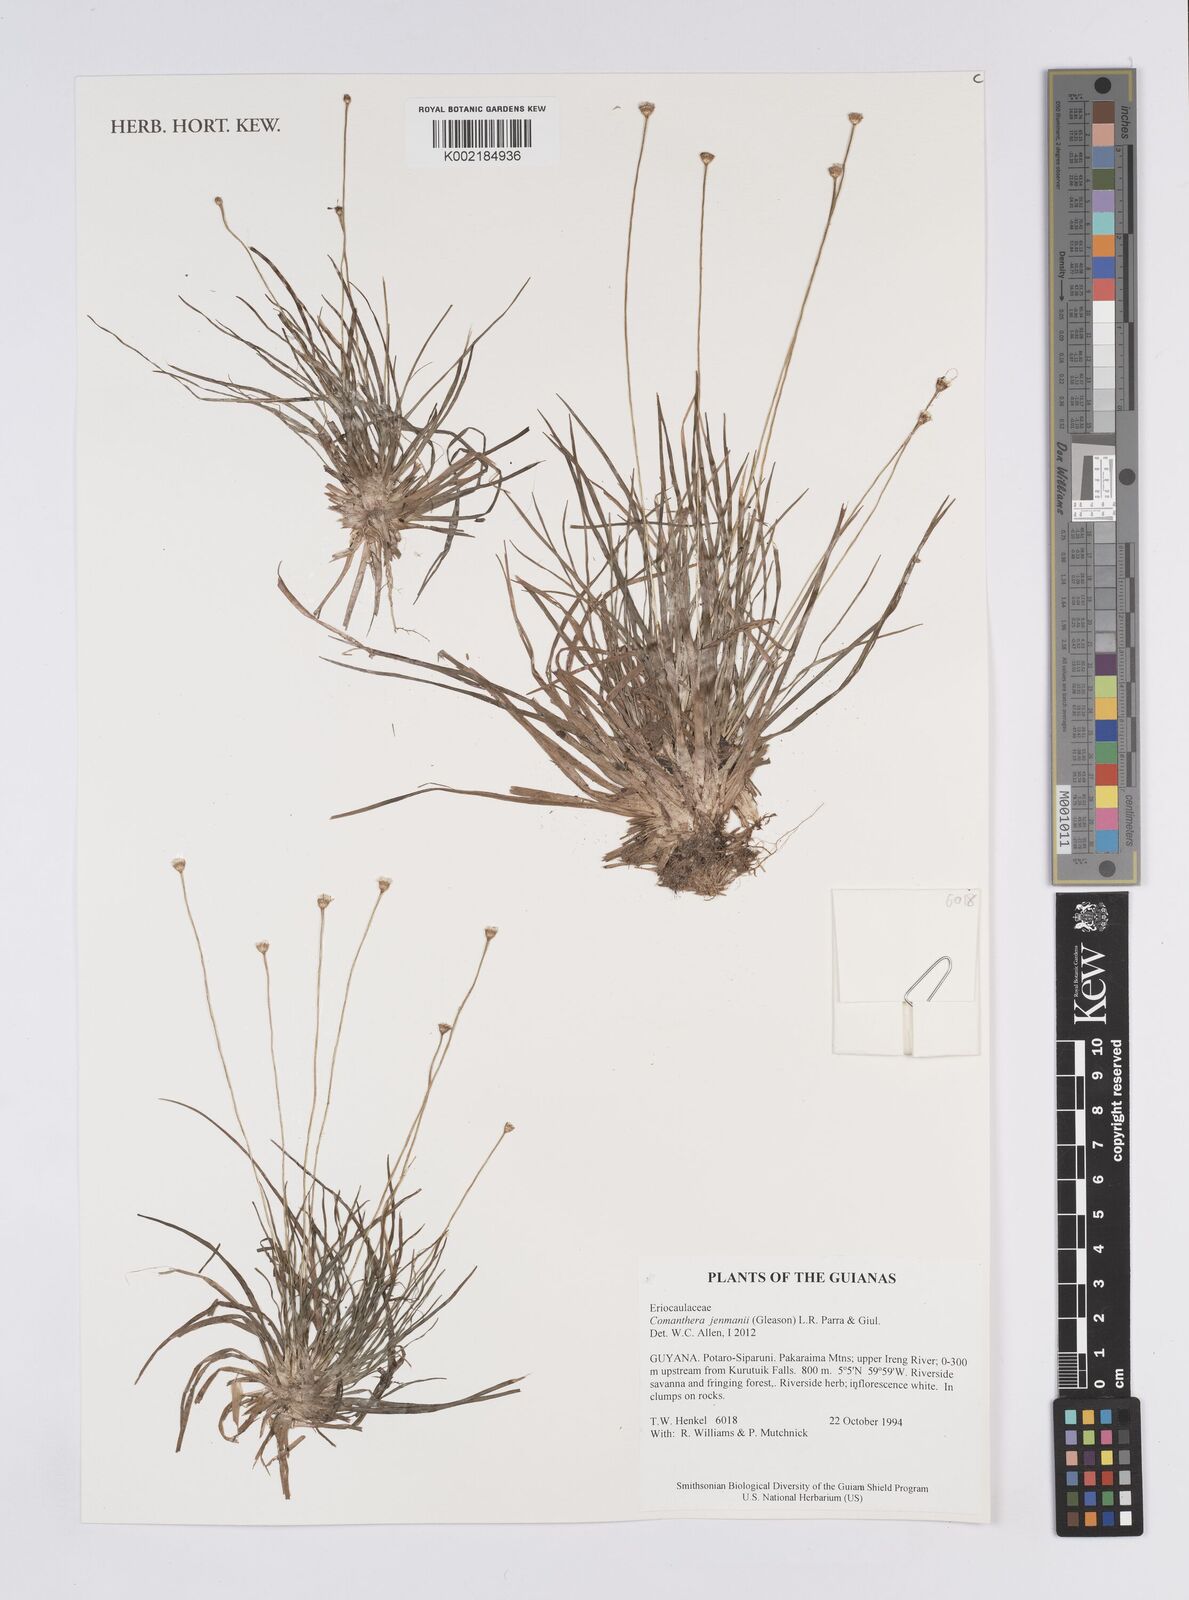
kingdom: Plantae
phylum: Tracheophyta
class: Liliopsida
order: Poales
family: Eriocaulaceae
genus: Comanthera
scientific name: Comanthera jenmanii
